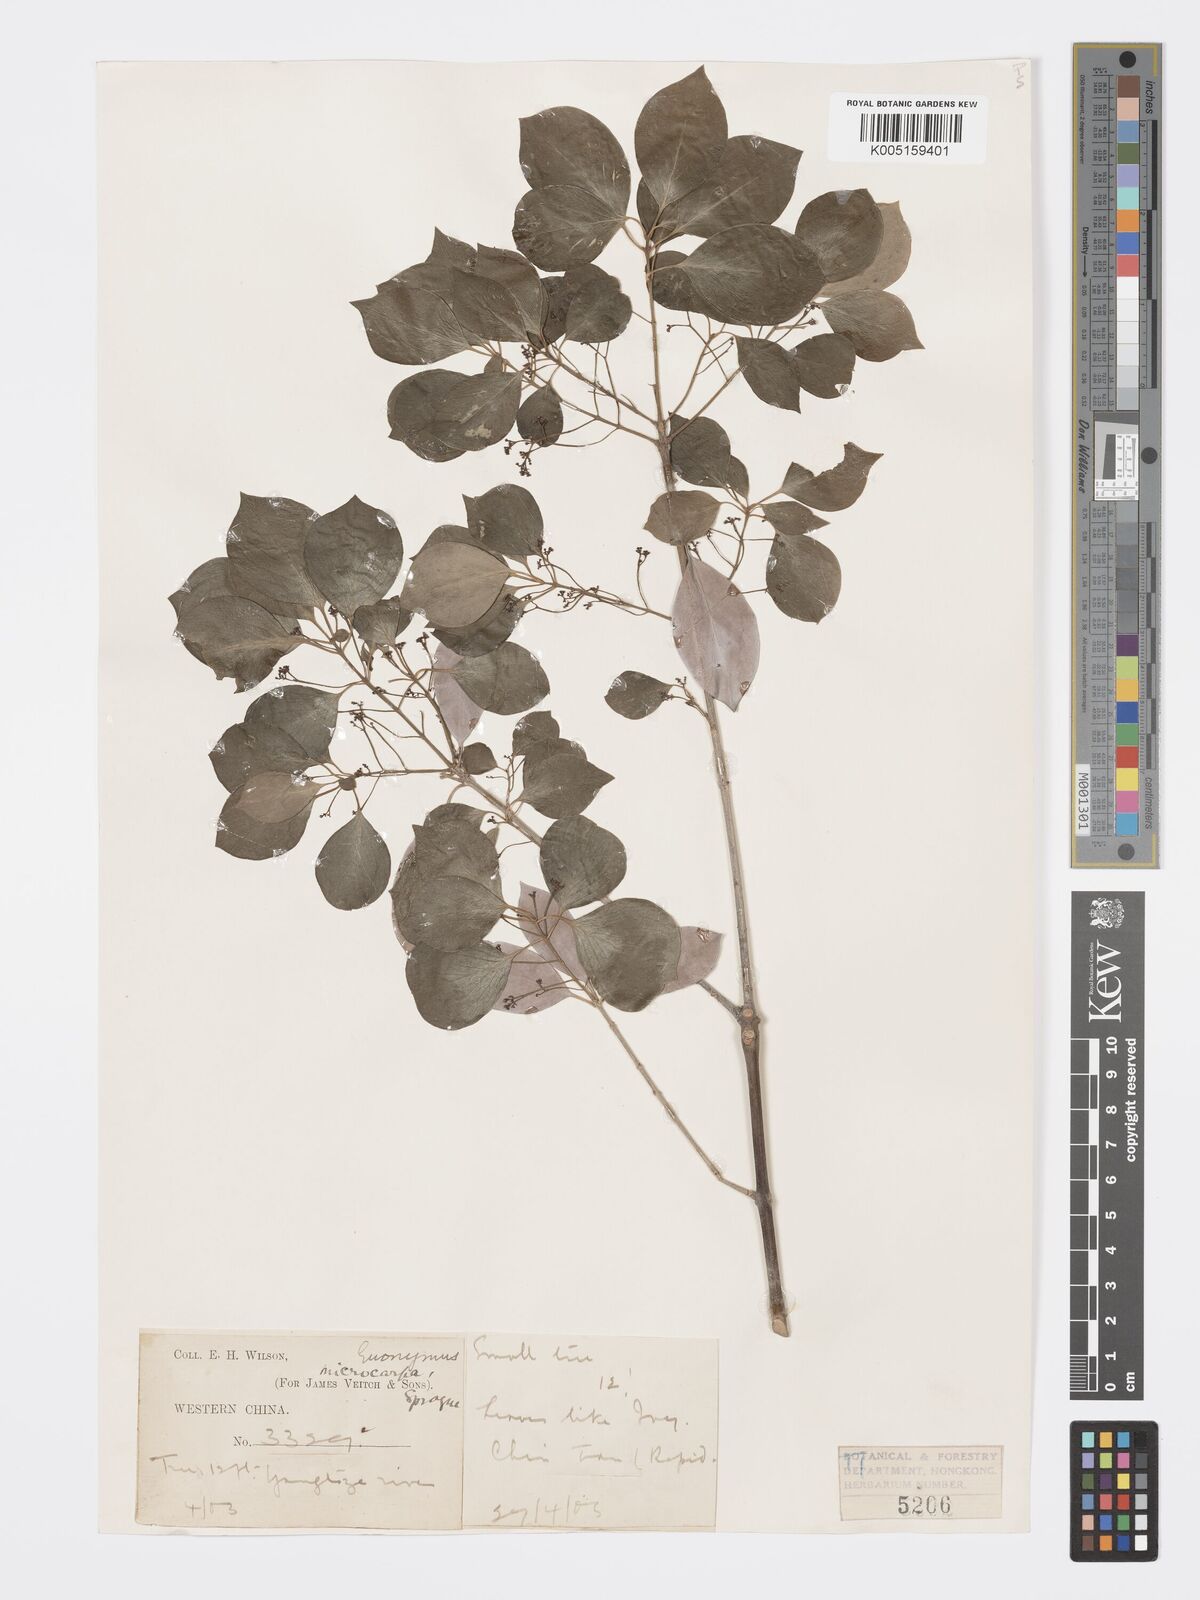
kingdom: Plantae
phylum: Tracheophyta
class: Magnoliopsida
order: Celastrales
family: Celastraceae
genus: Euonymus
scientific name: Euonymus
